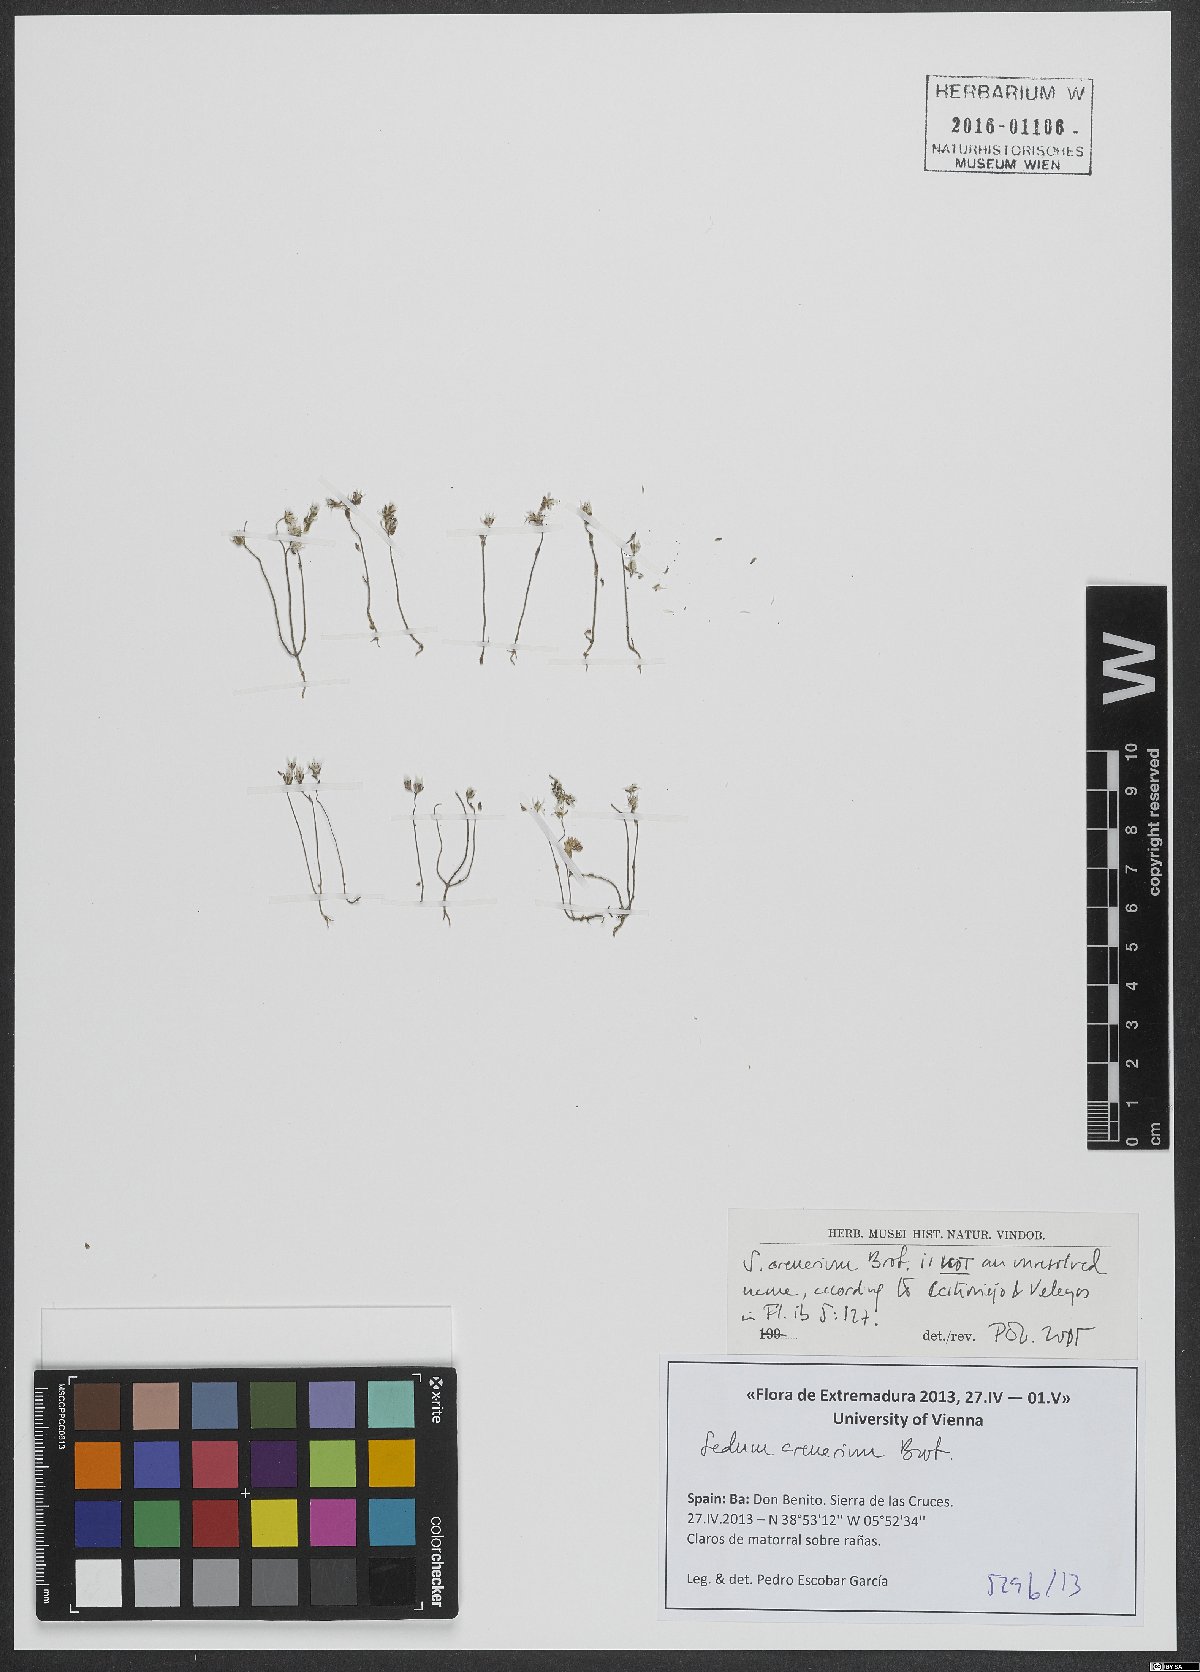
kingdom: Plantae
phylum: Tracheophyta
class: Magnoliopsida
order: Saxifragales
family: Crassulaceae
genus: Sedum
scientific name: Sedum arenarium
